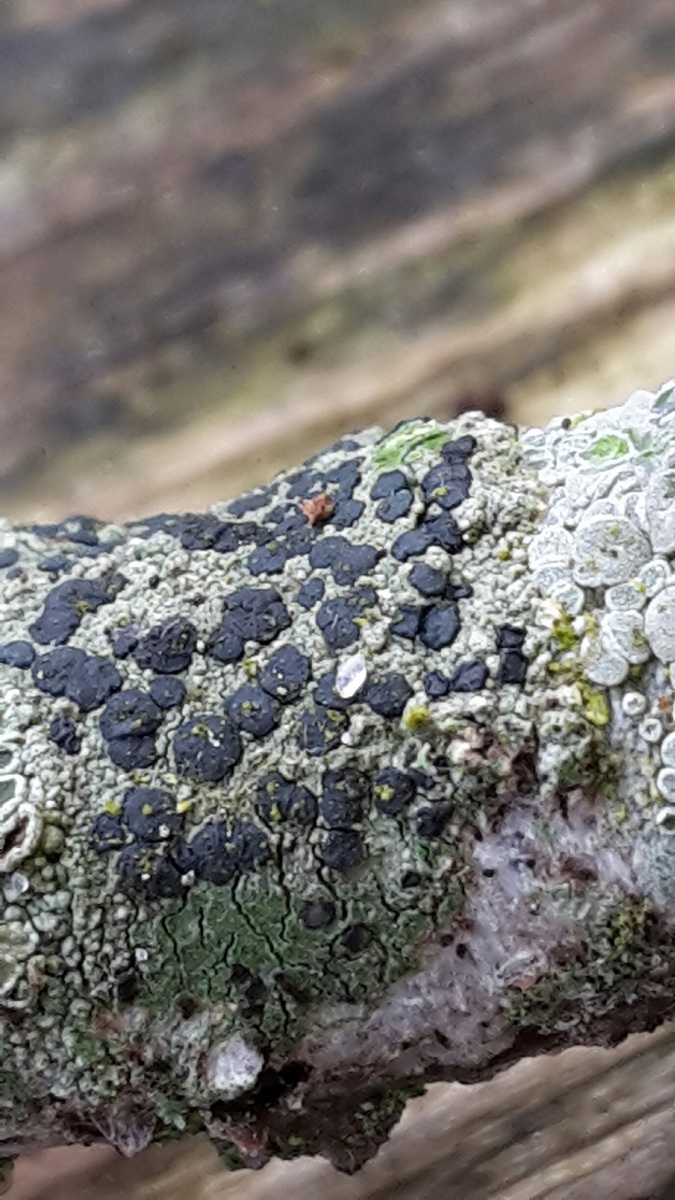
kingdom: Fungi
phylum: Ascomycota
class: Lecanoromycetes
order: Lecanorales
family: Lecanoraceae
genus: Lecidella
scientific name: Lecidella elaeochroma
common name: grågrøn skivelav
